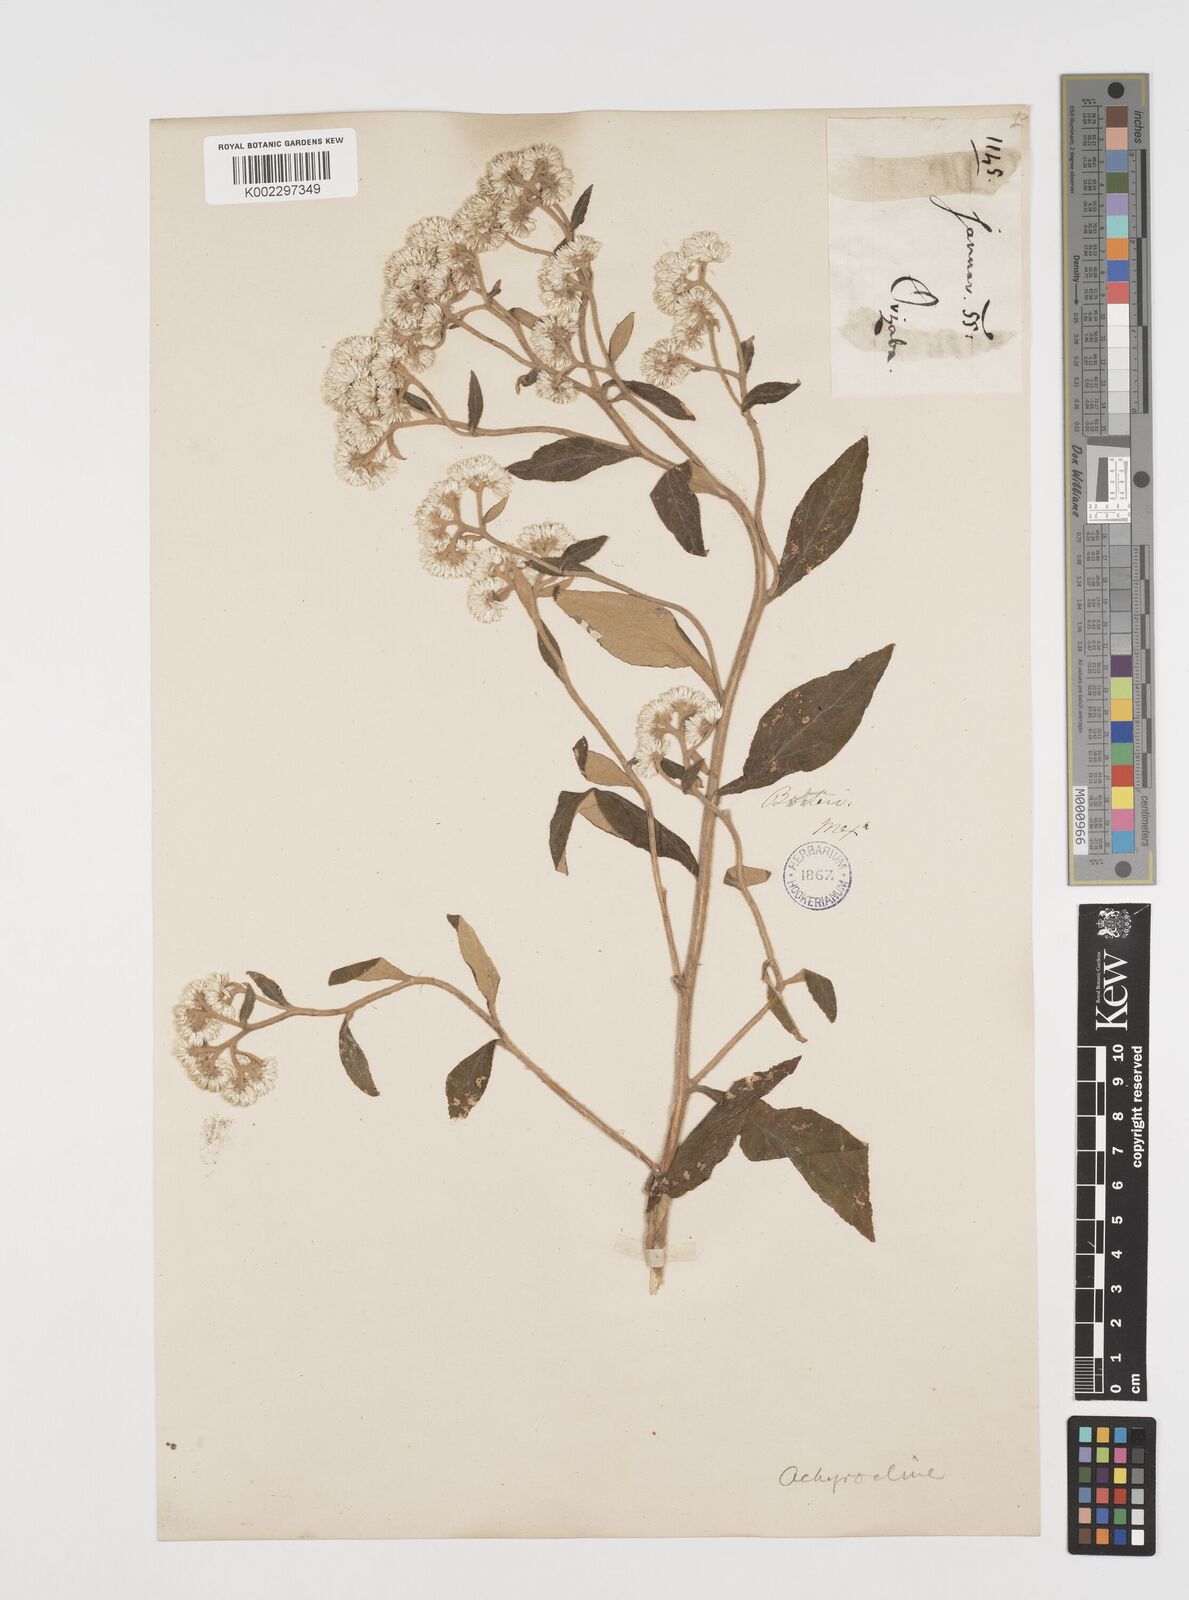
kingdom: Plantae
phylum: Tracheophyta
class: Magnoliopsida
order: Asterales
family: Asteraceae
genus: Achyrocline
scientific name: Achyrocline
